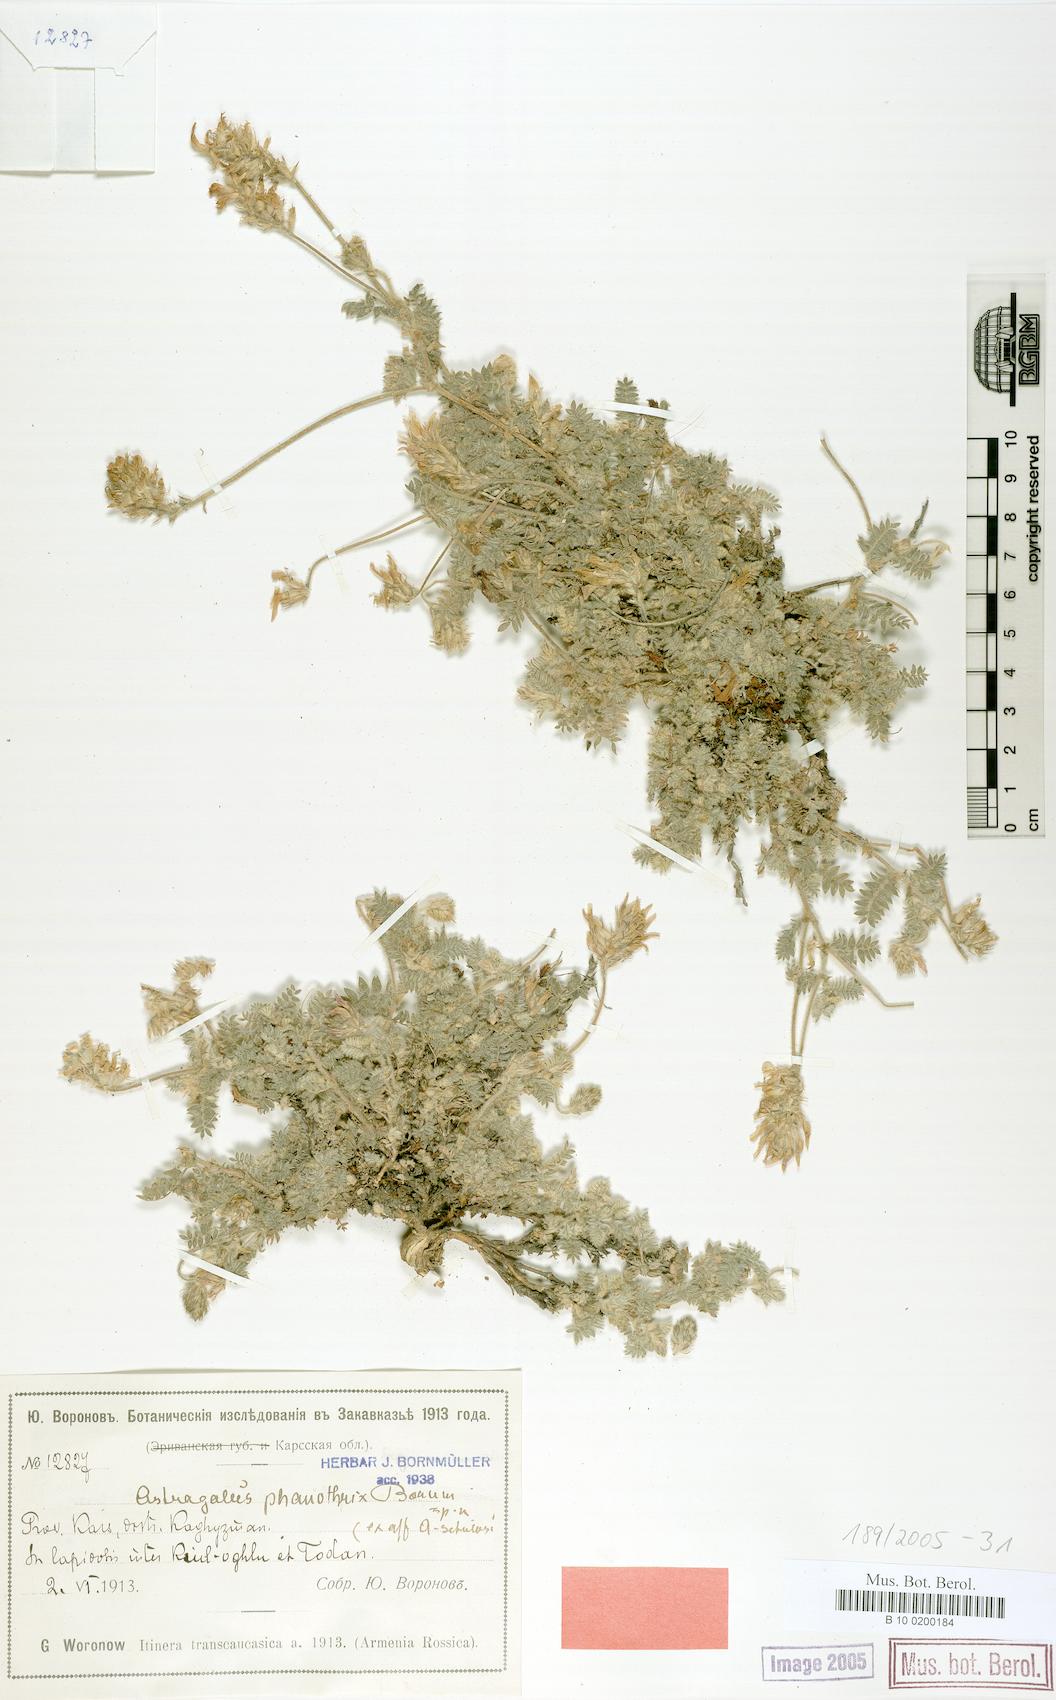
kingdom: Plantae
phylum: Tracheophyta
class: Magnoliopsida
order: Fabales
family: Fabaceae
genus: Astragalus
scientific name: Astragalus cancellatus
